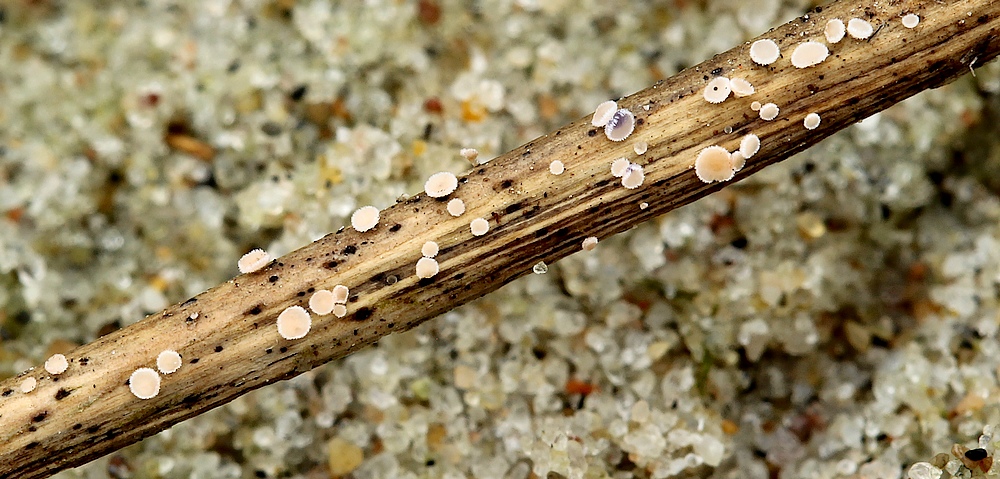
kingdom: Fungi
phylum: Ascomycota
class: Leotiomycetes
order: Helotiales
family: Lachnaceae
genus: Lachnum
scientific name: Lachnum carneolum
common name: kødfarvet frynseskive
